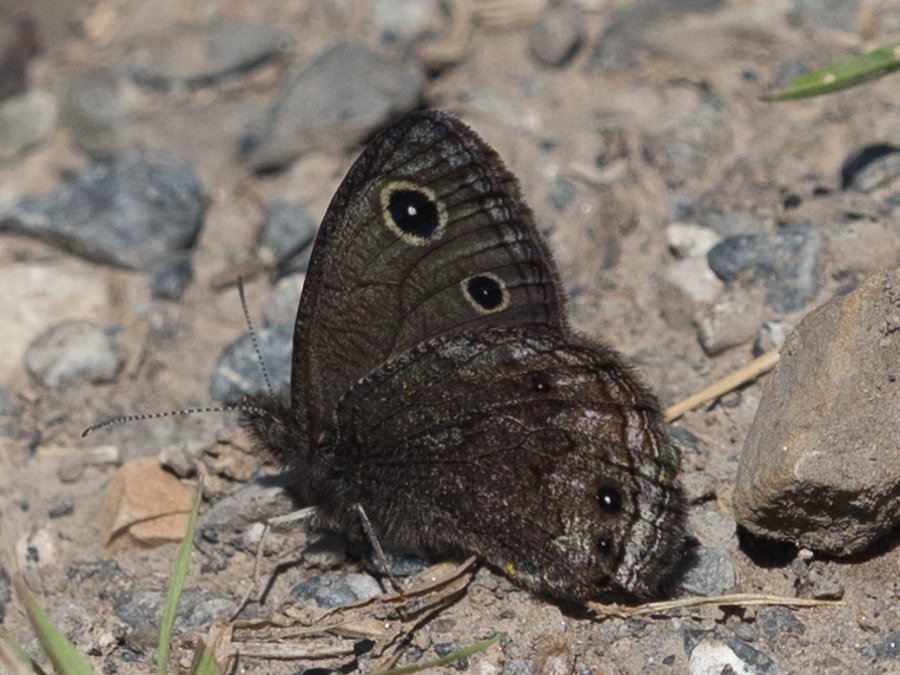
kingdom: Animalia
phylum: Arthropoda
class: Insecta
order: Lepidoptera
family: Nymphalidae
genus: Cercyonis
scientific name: Cercyonis oetus
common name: Small Wood-Nymph
